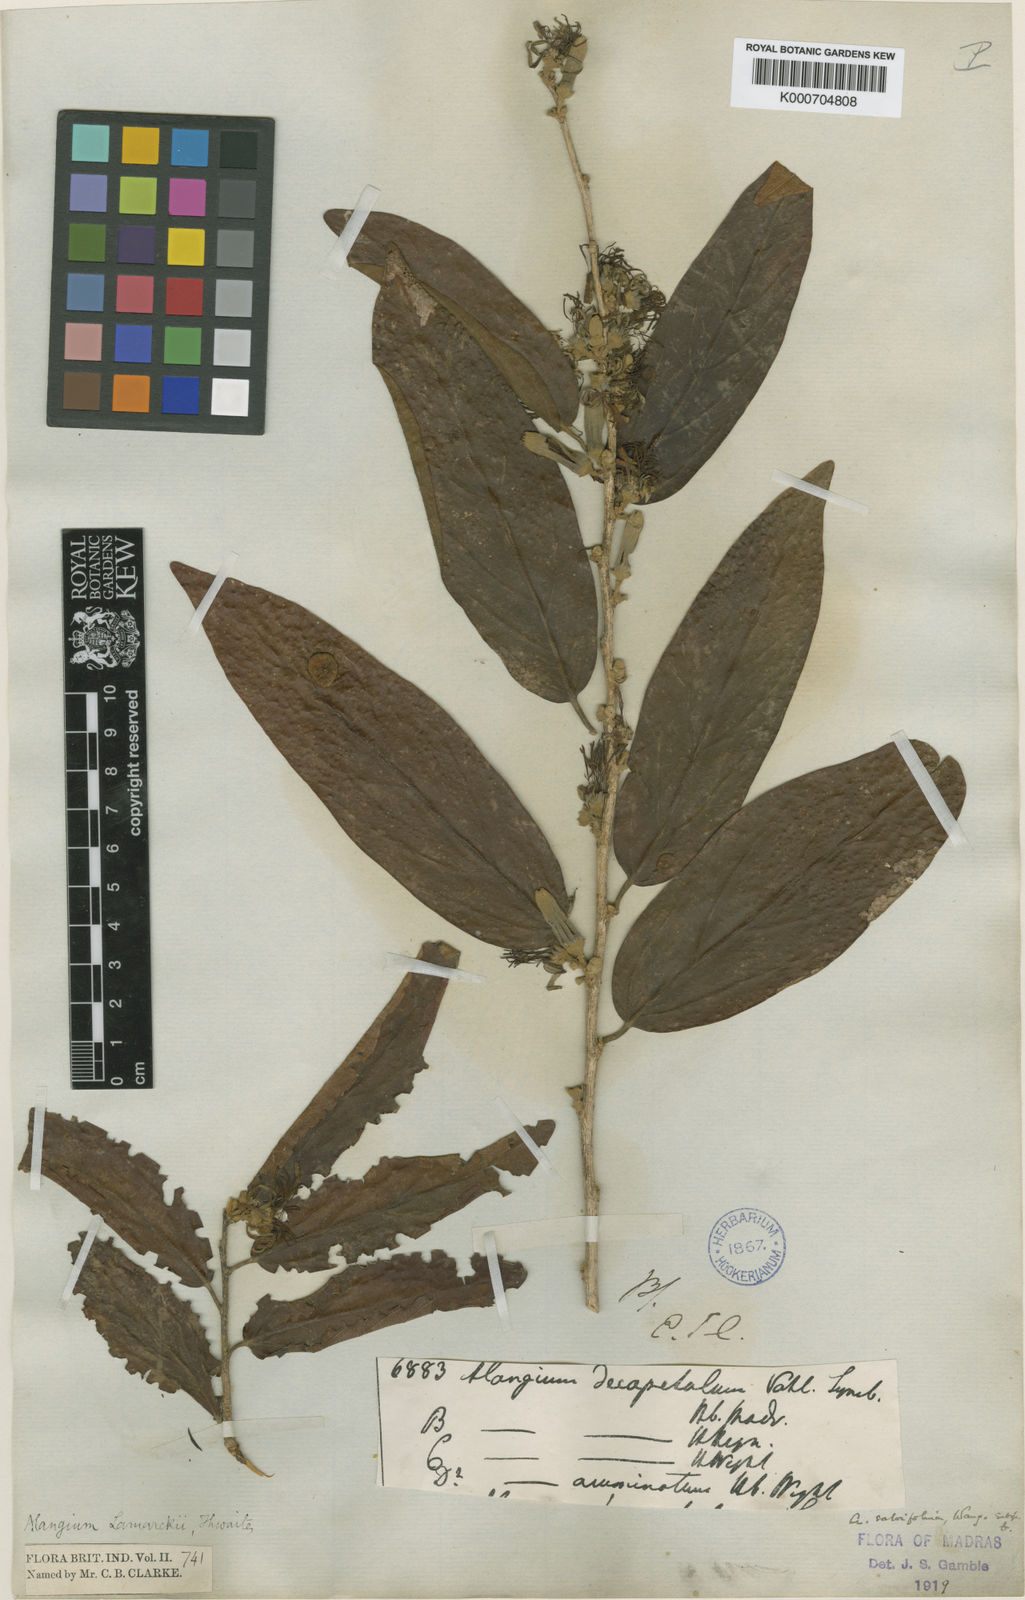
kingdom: Plantae
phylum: Tracheophyta
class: Magnoliopsida
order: Cornales
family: Cornaceae
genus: Alangium
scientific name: Alangium salviifolium
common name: Sage-leaf alangium
